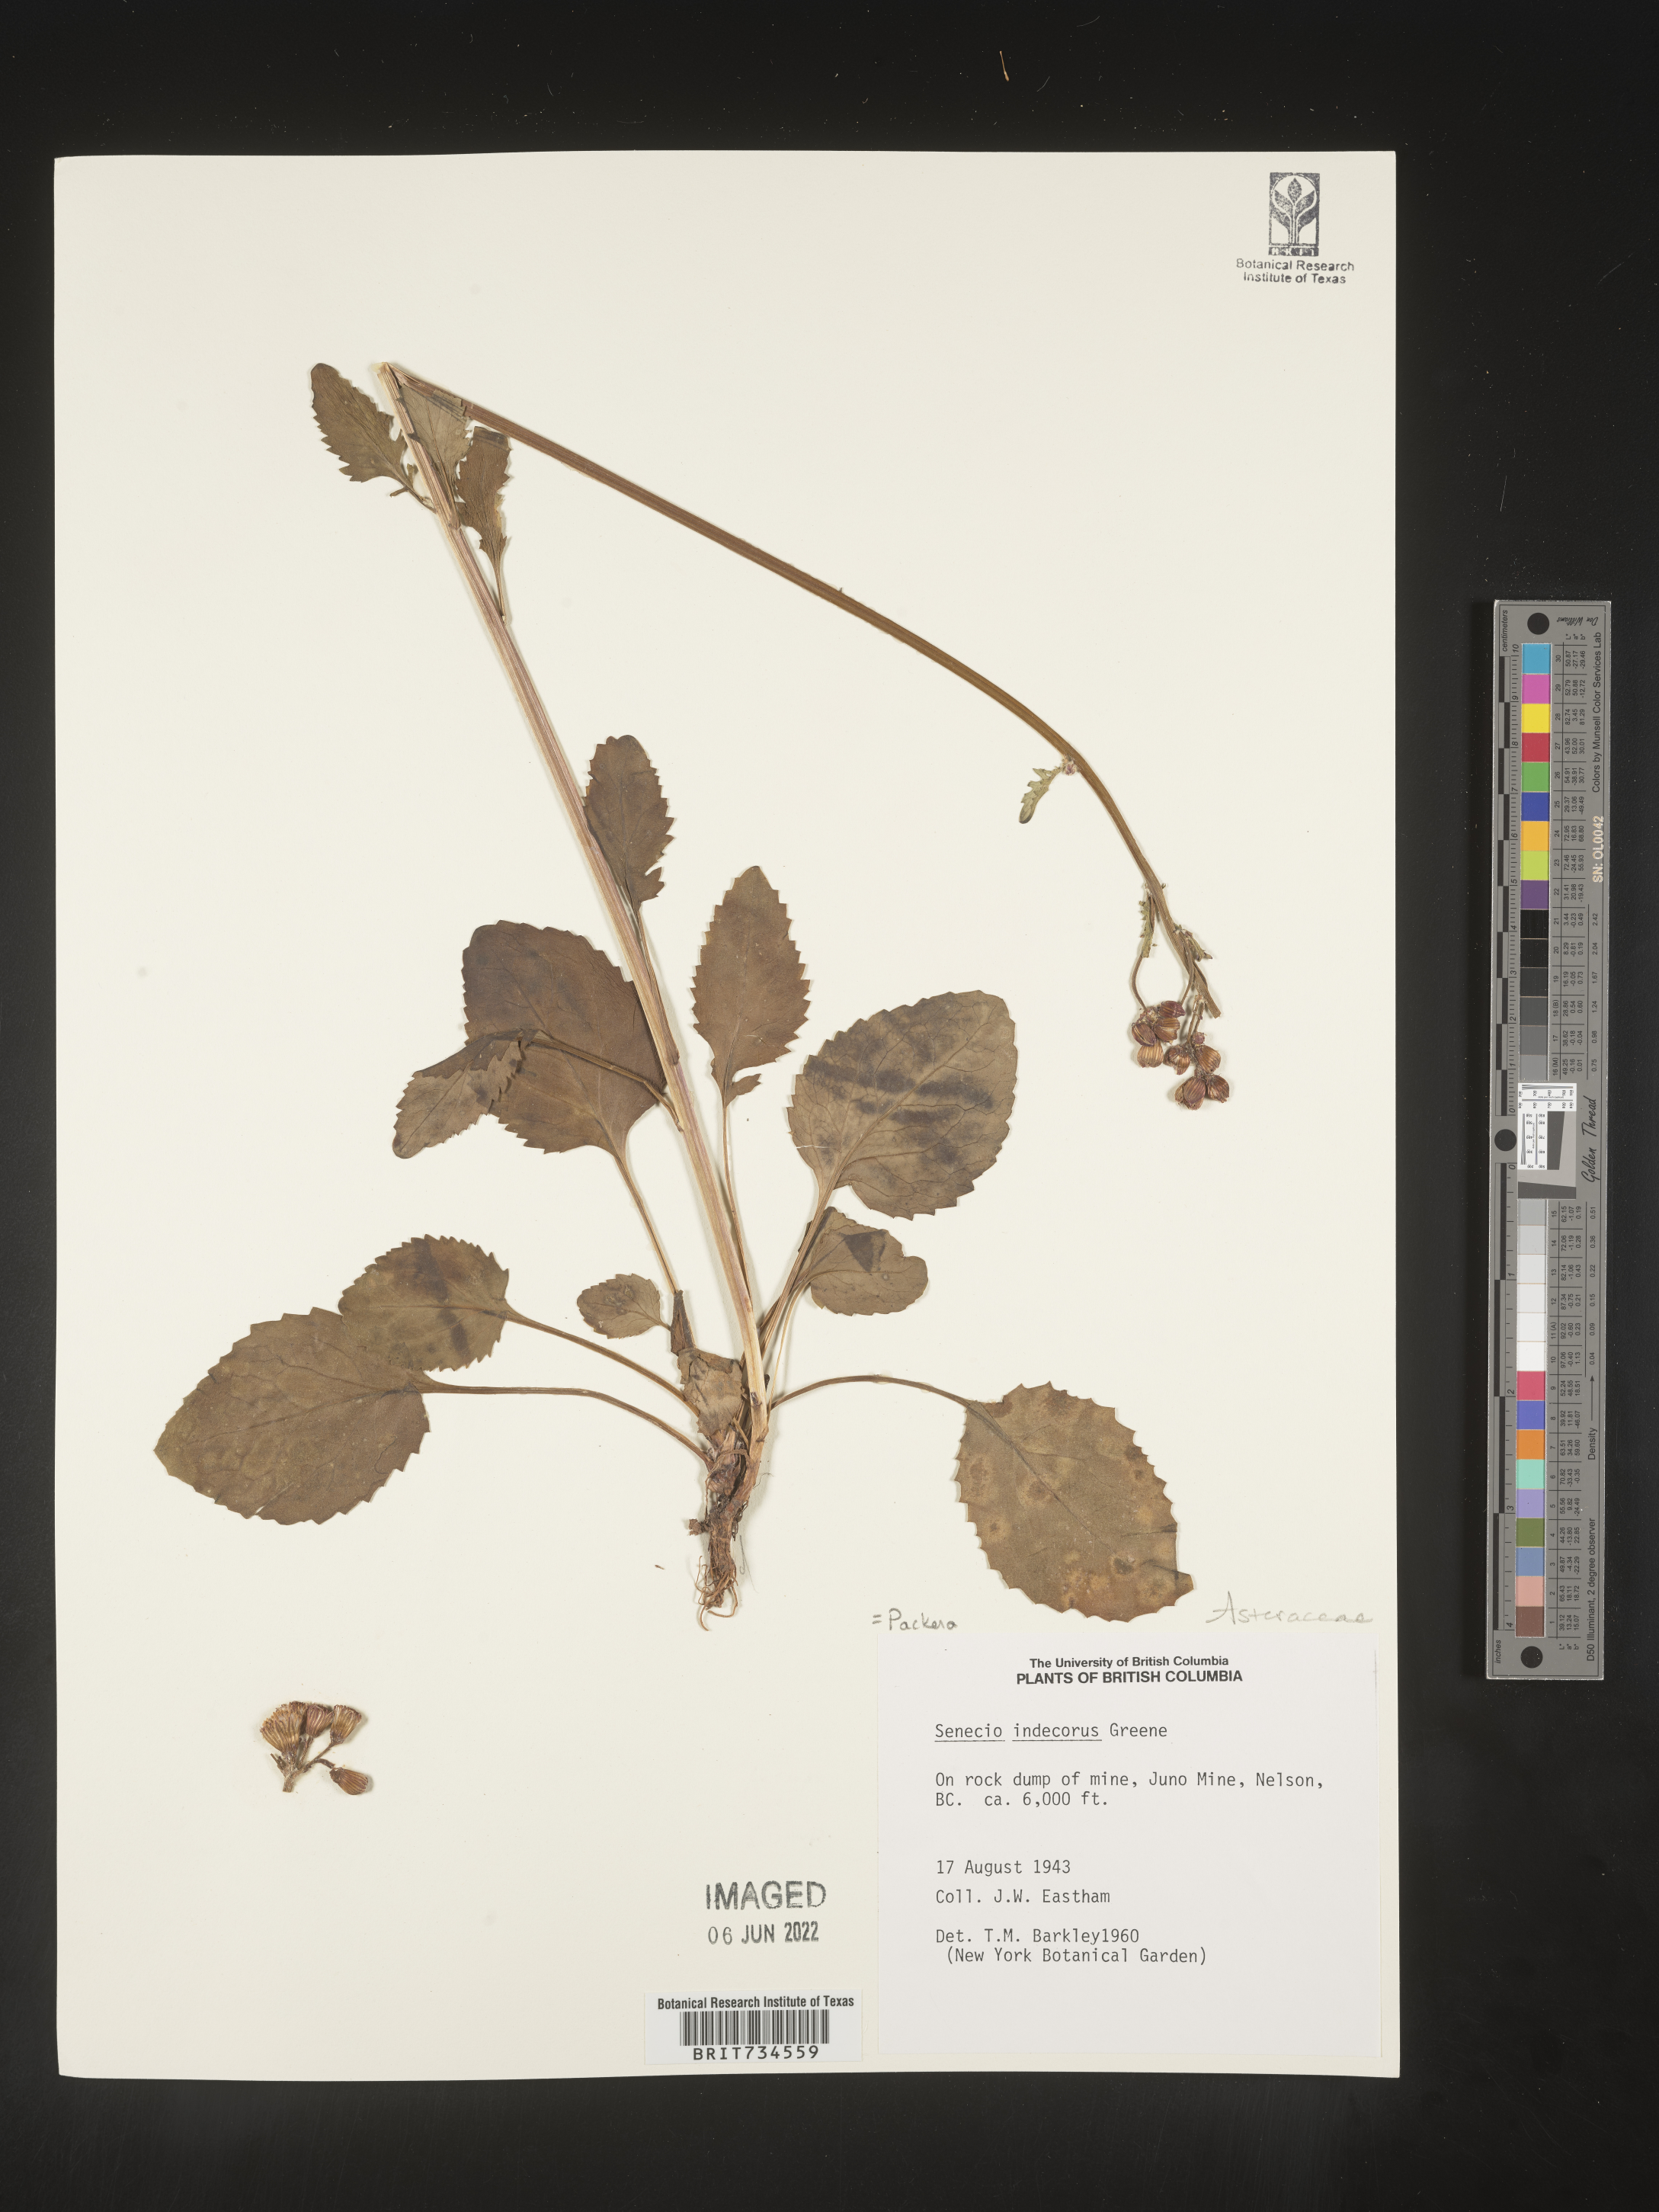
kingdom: Plantae
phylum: Tracheophyta
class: Magnoliopsida
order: Asterales
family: Asteraceae
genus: Packera
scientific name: Packera
